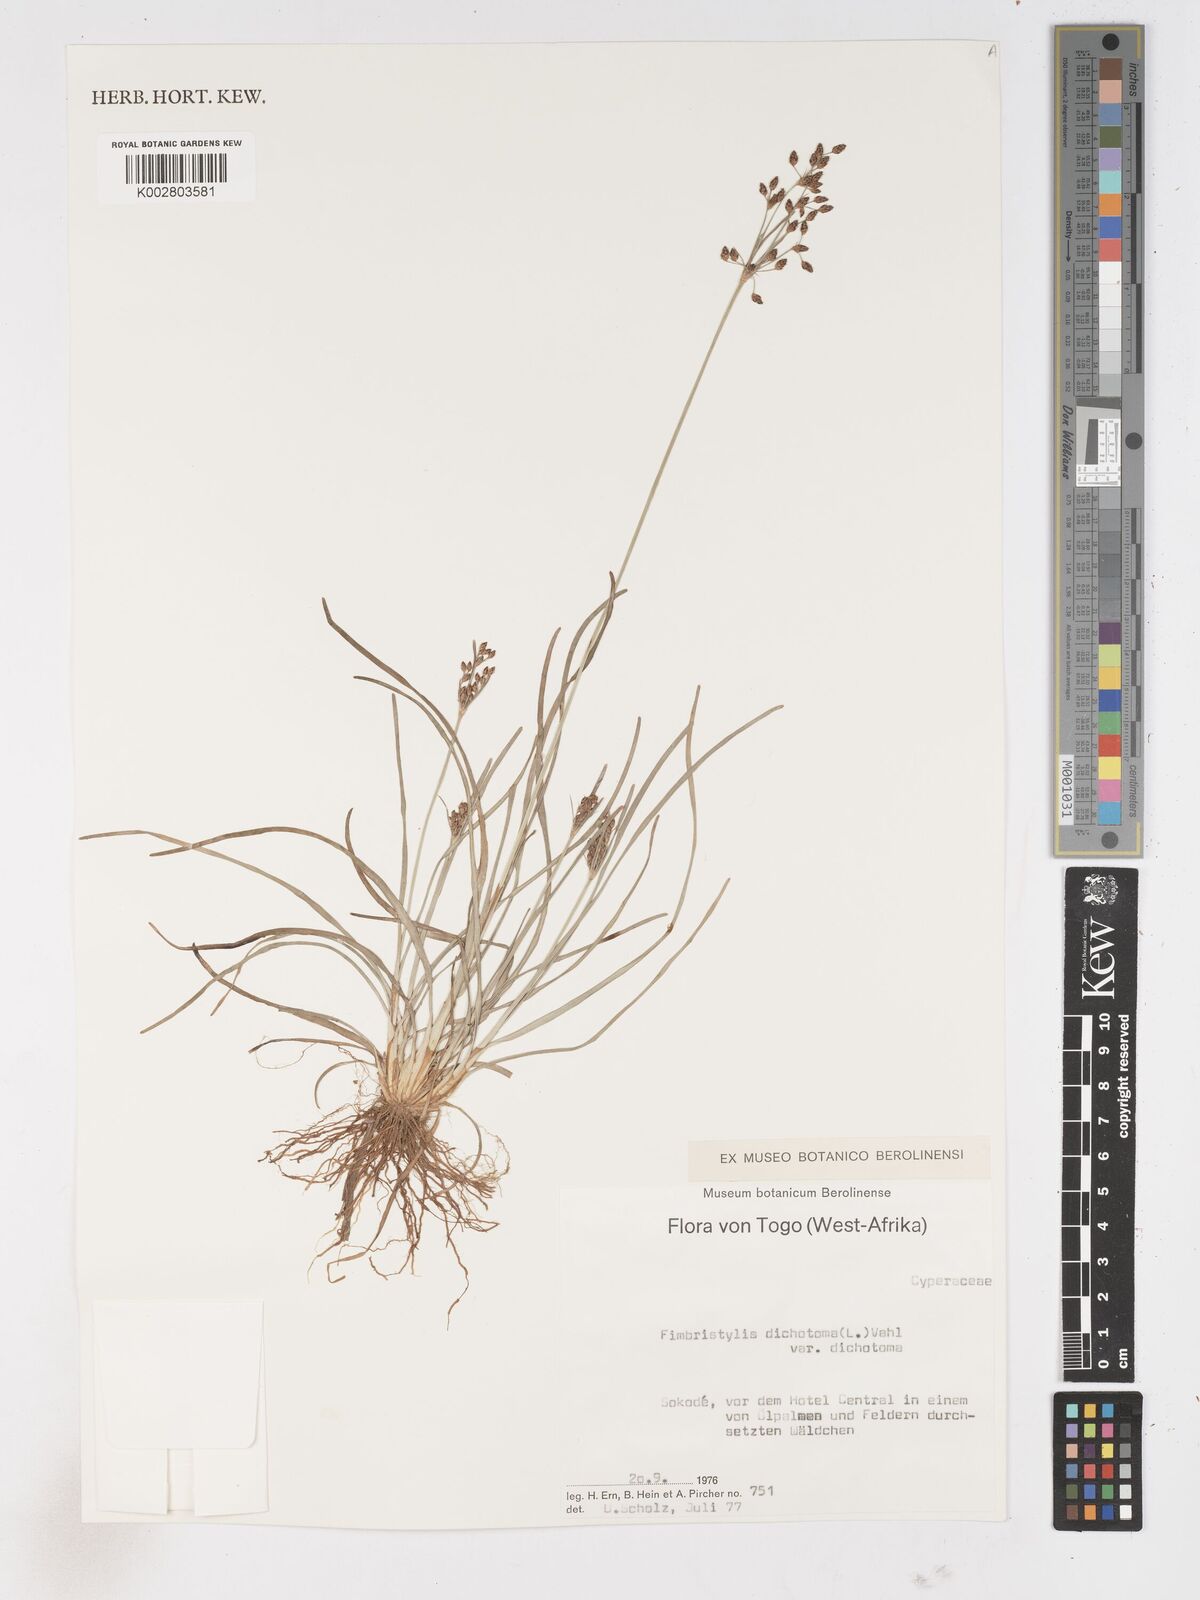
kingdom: Plantae
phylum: Tracheophyta
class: Liliopsida
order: Poales
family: Cyperaceae
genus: Fimbristylis
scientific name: Fimbristylis dichotoma
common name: Forked fimbry
